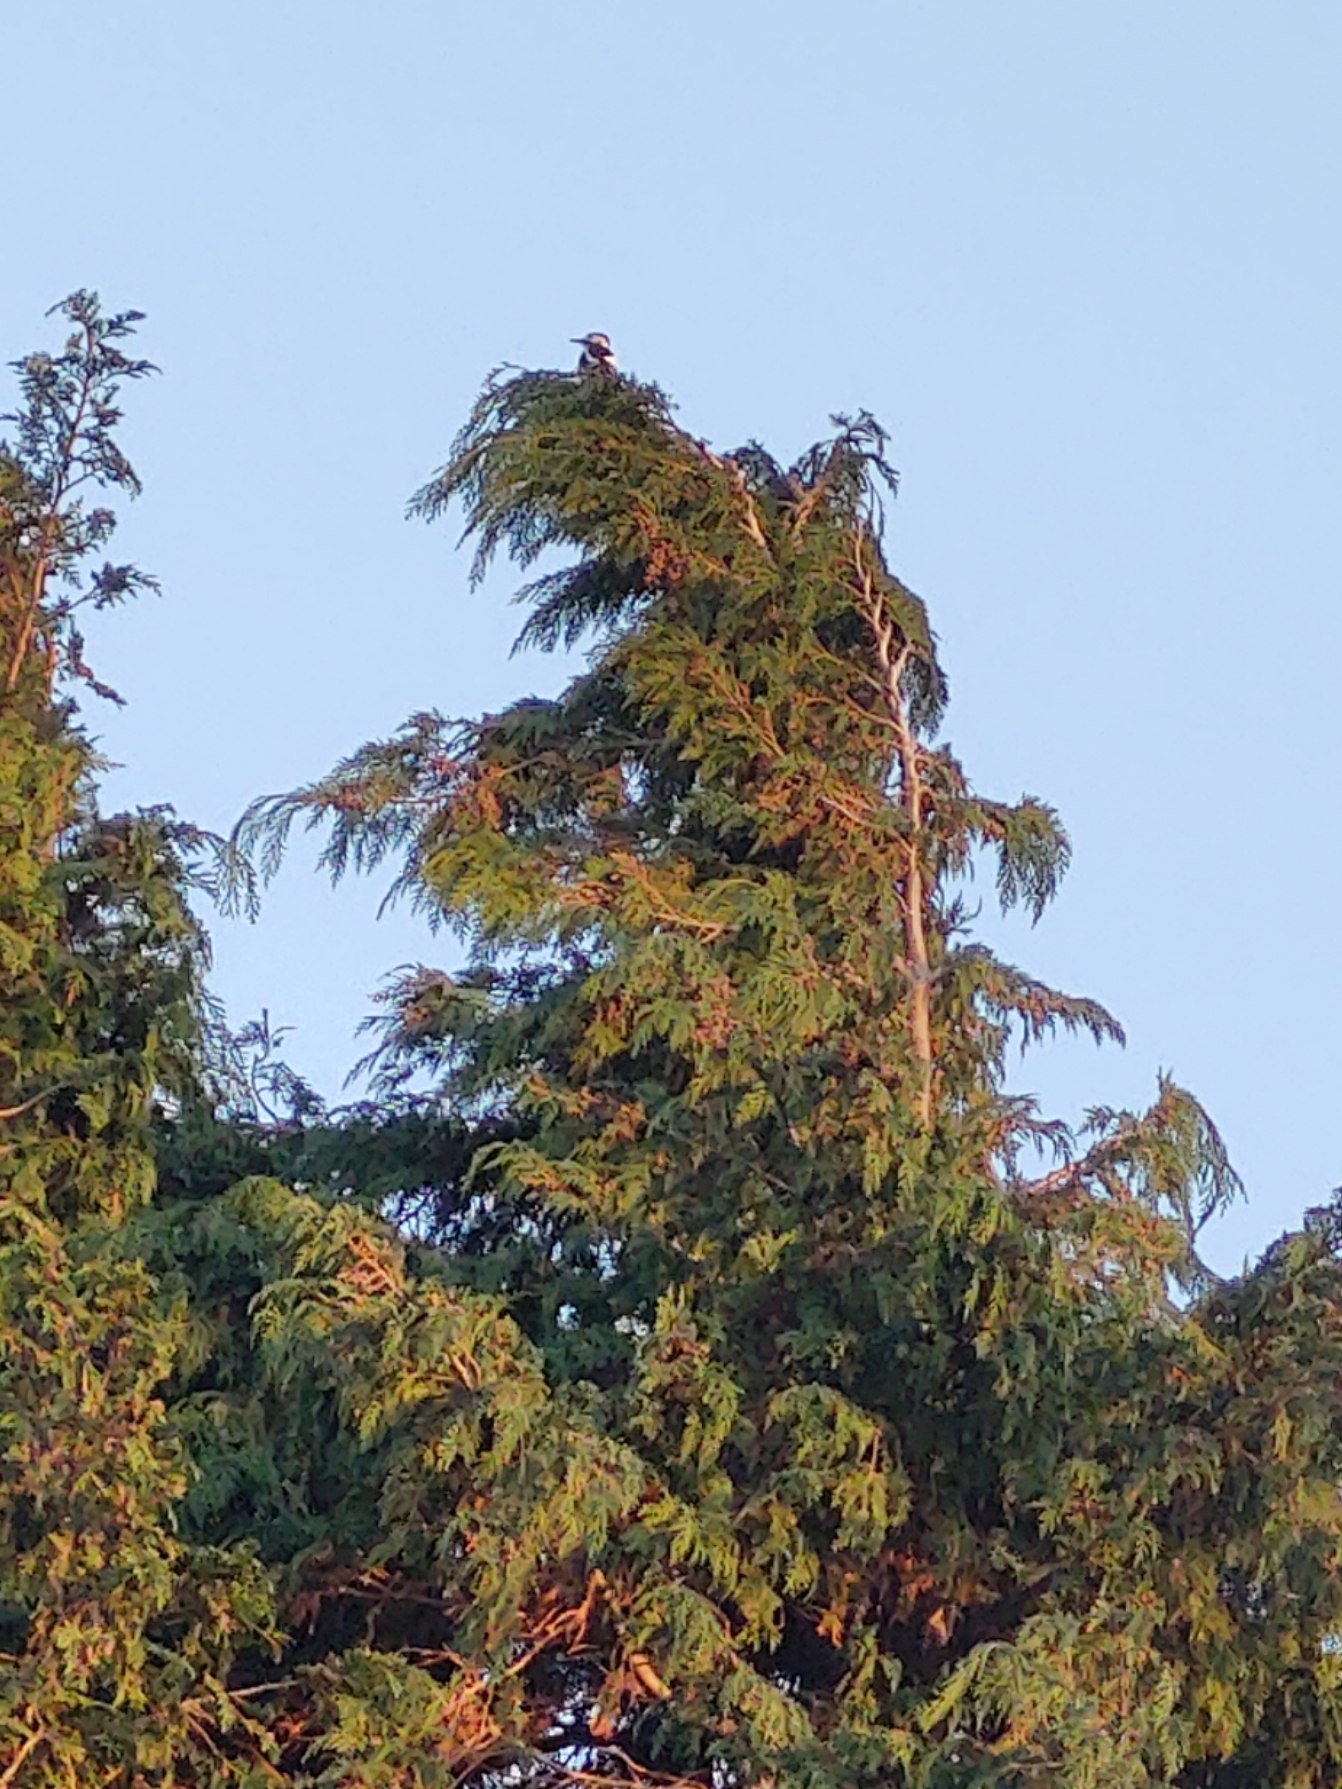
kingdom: Animalia
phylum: Chordata
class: Aves
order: Piciformes
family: Picidae
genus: Dendrocopos
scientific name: Dendrocopos major
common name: Stor flagspætte
